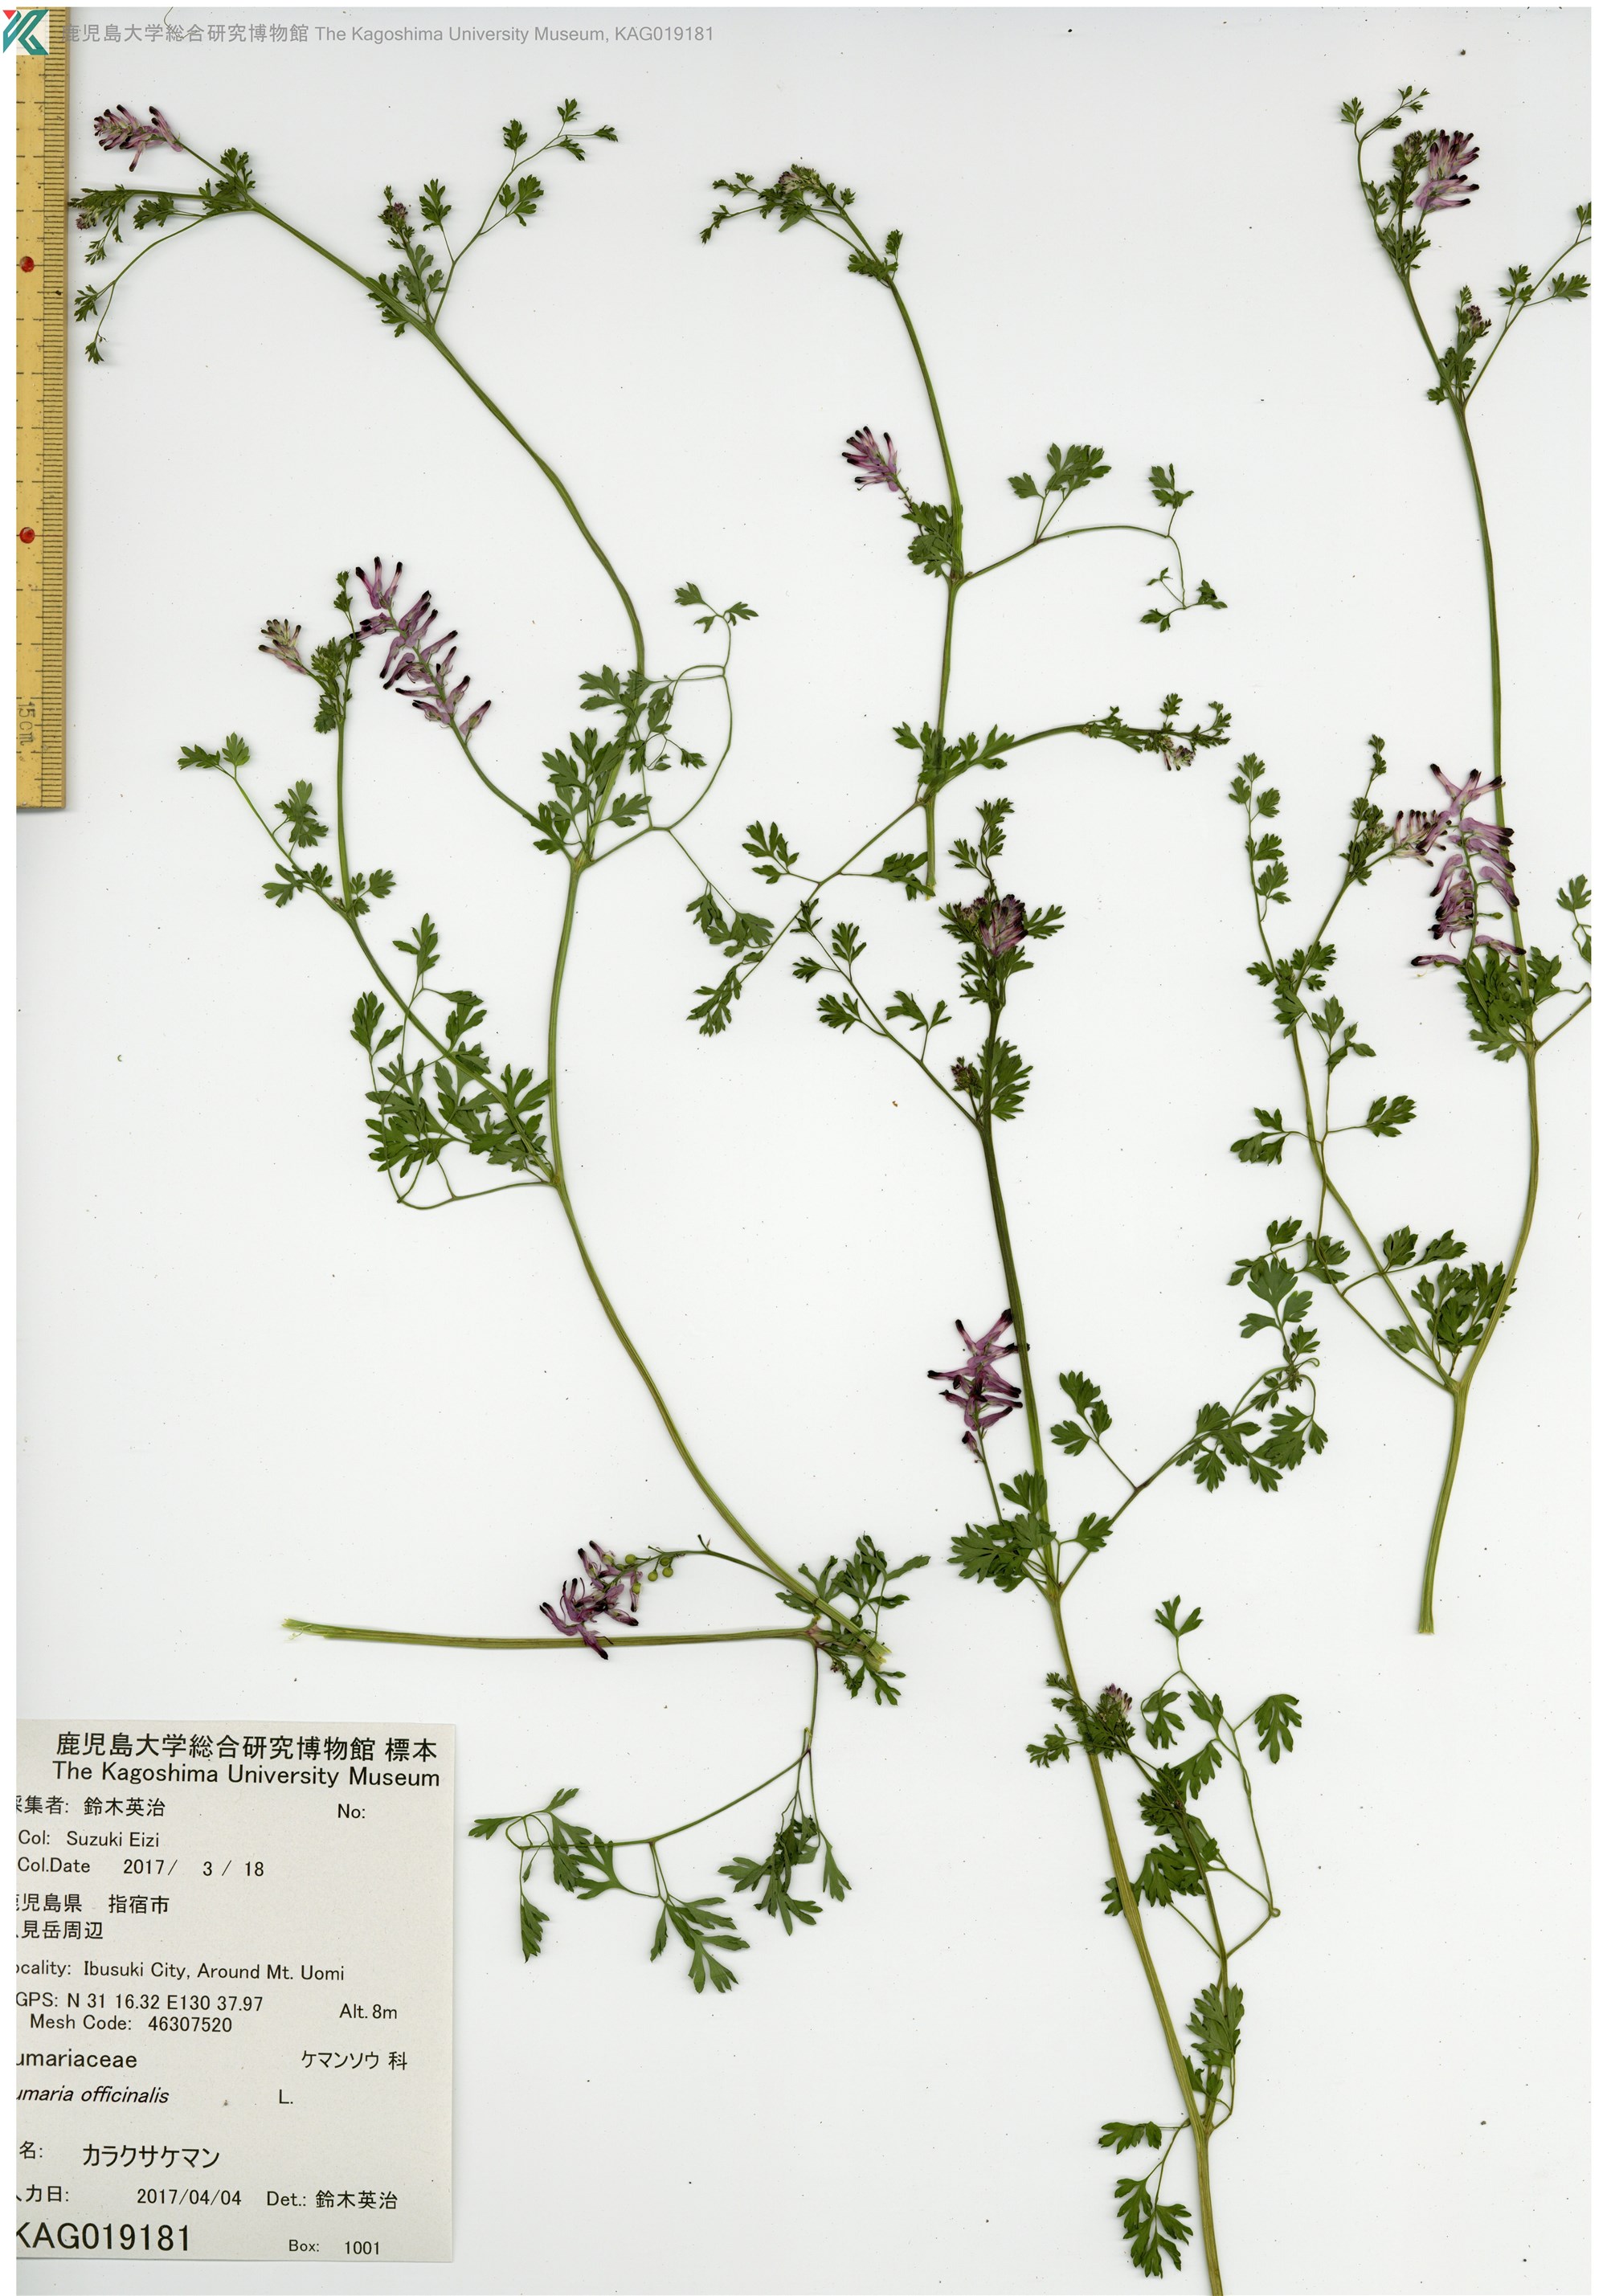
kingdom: Plantae
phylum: Tracheophyta
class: Magnoliopsida
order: Ranunculales
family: Papaveraceae
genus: Fumaria
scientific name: Fumaria officinalis
